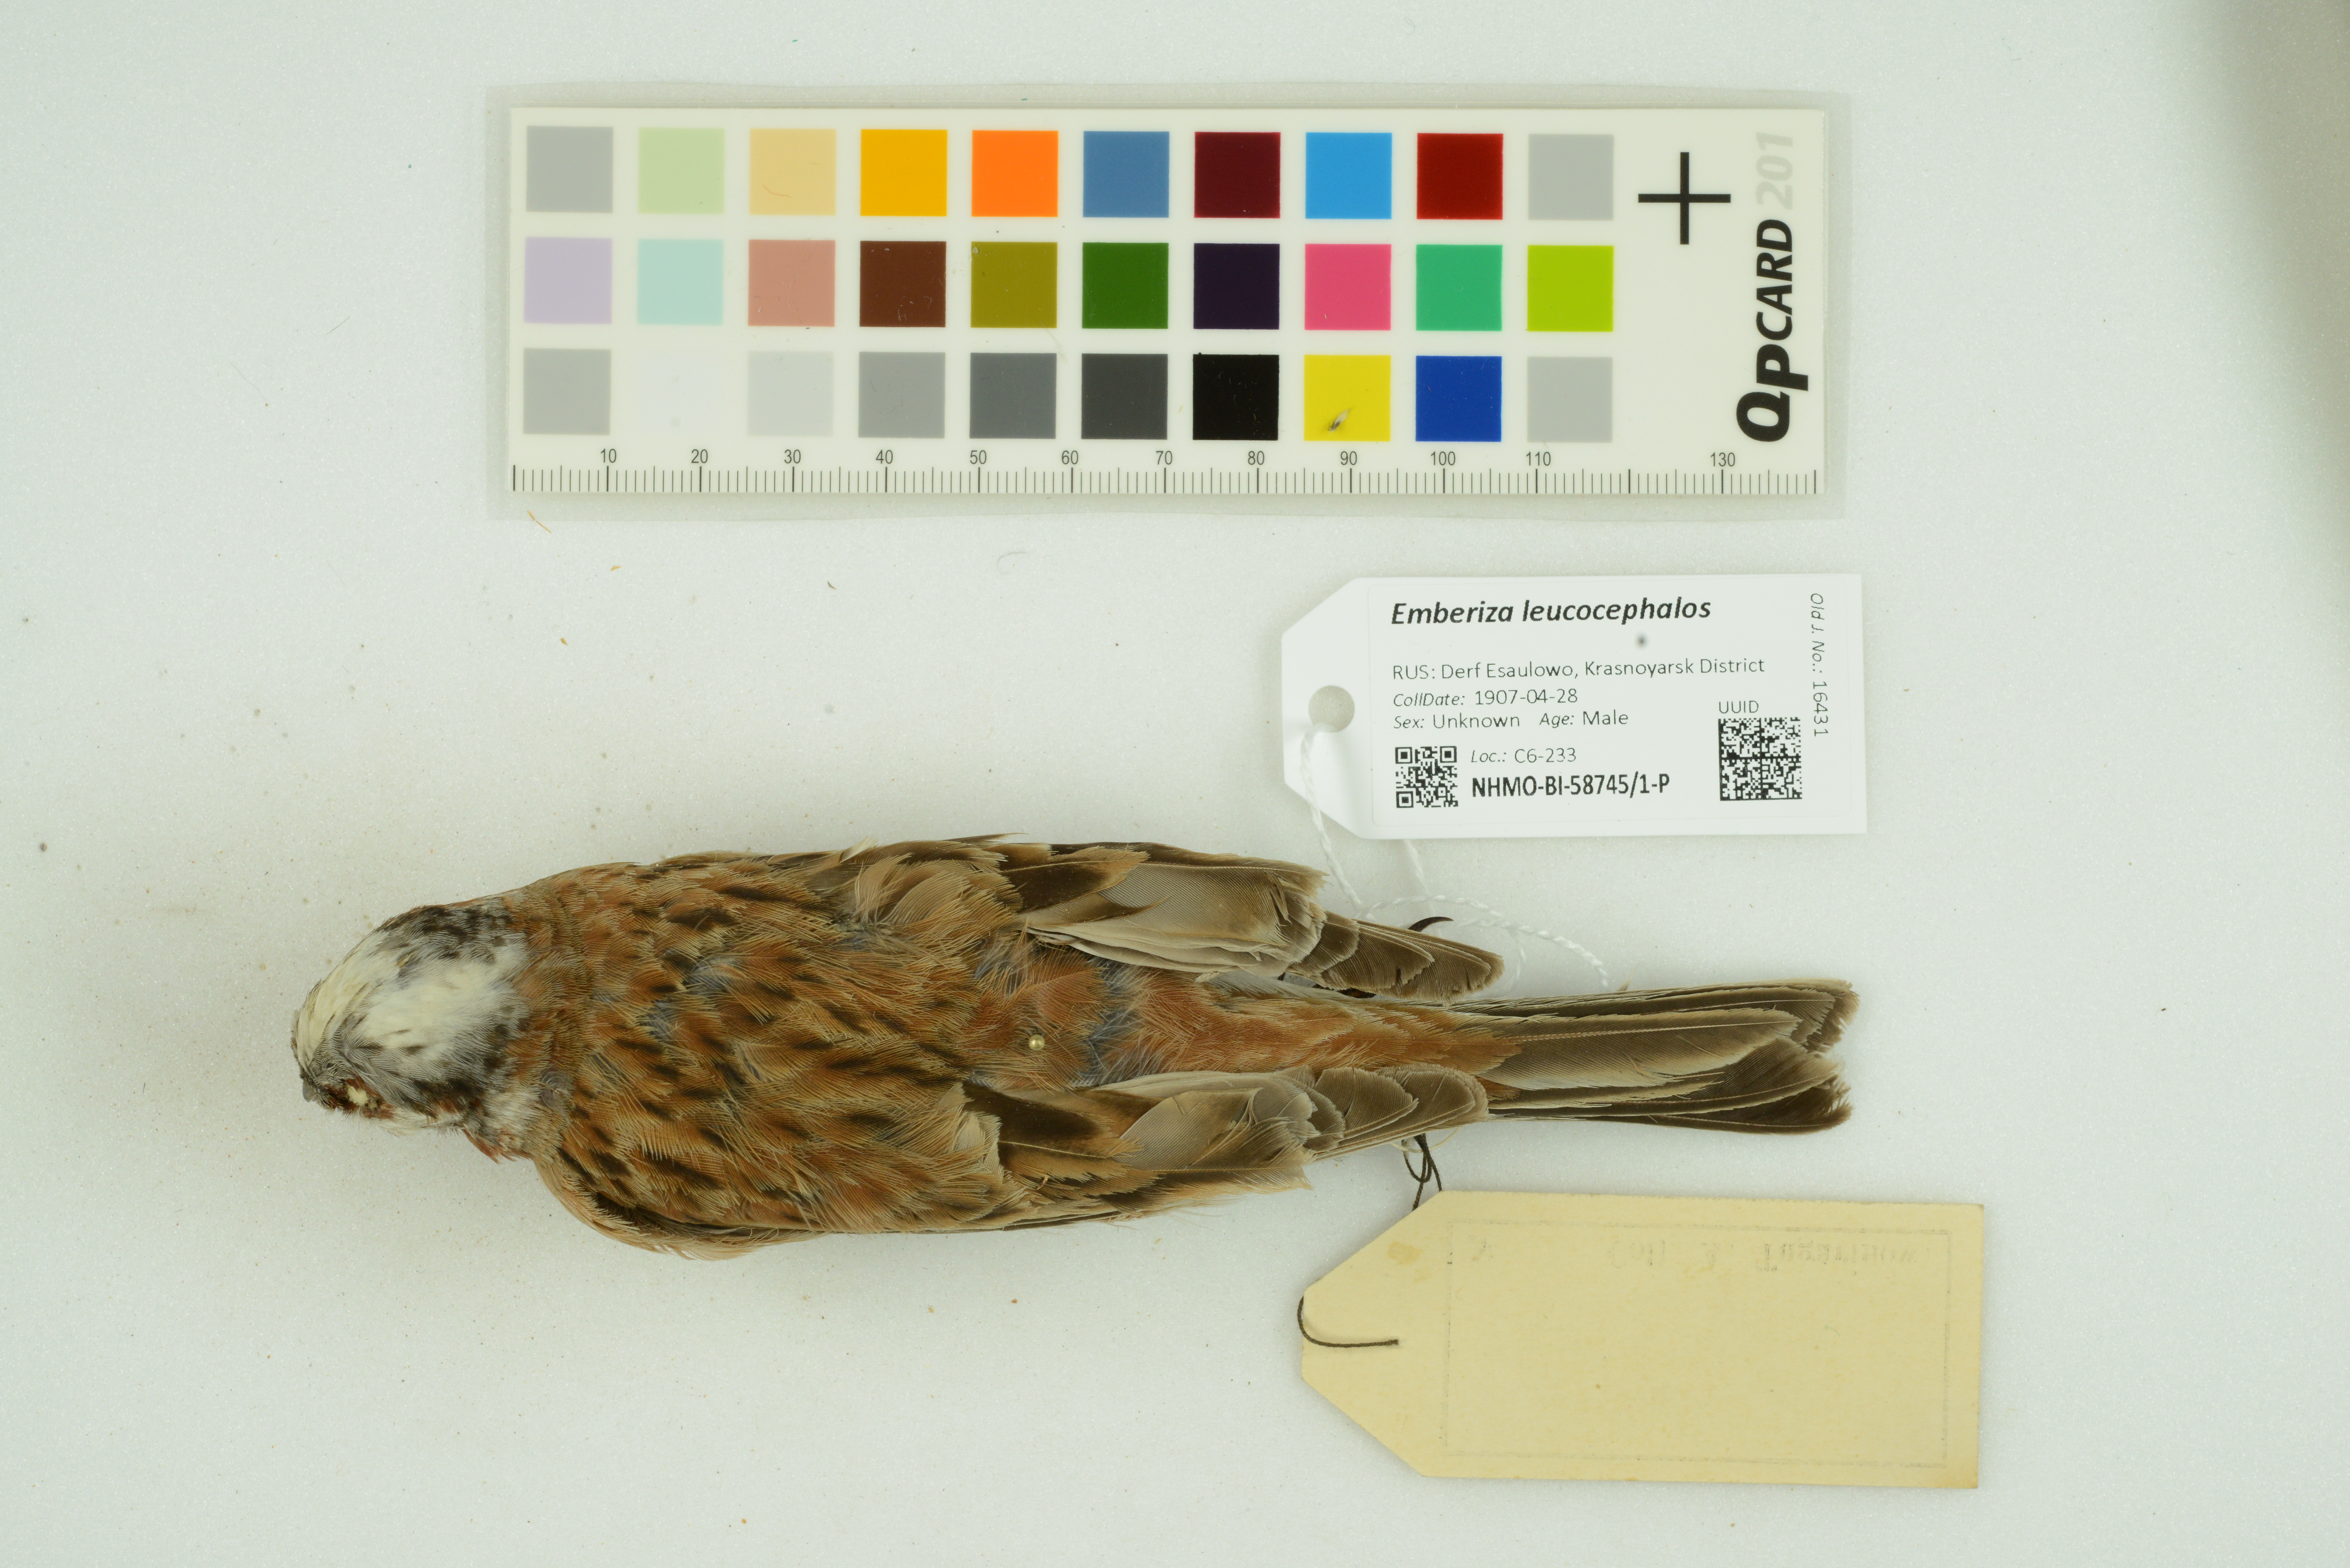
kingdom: Animalia
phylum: Chordata
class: Aves
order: Passeriformes
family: Emberizidae
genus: Emberiza
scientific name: Emberiza leucocephalos
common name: Pine bunting
